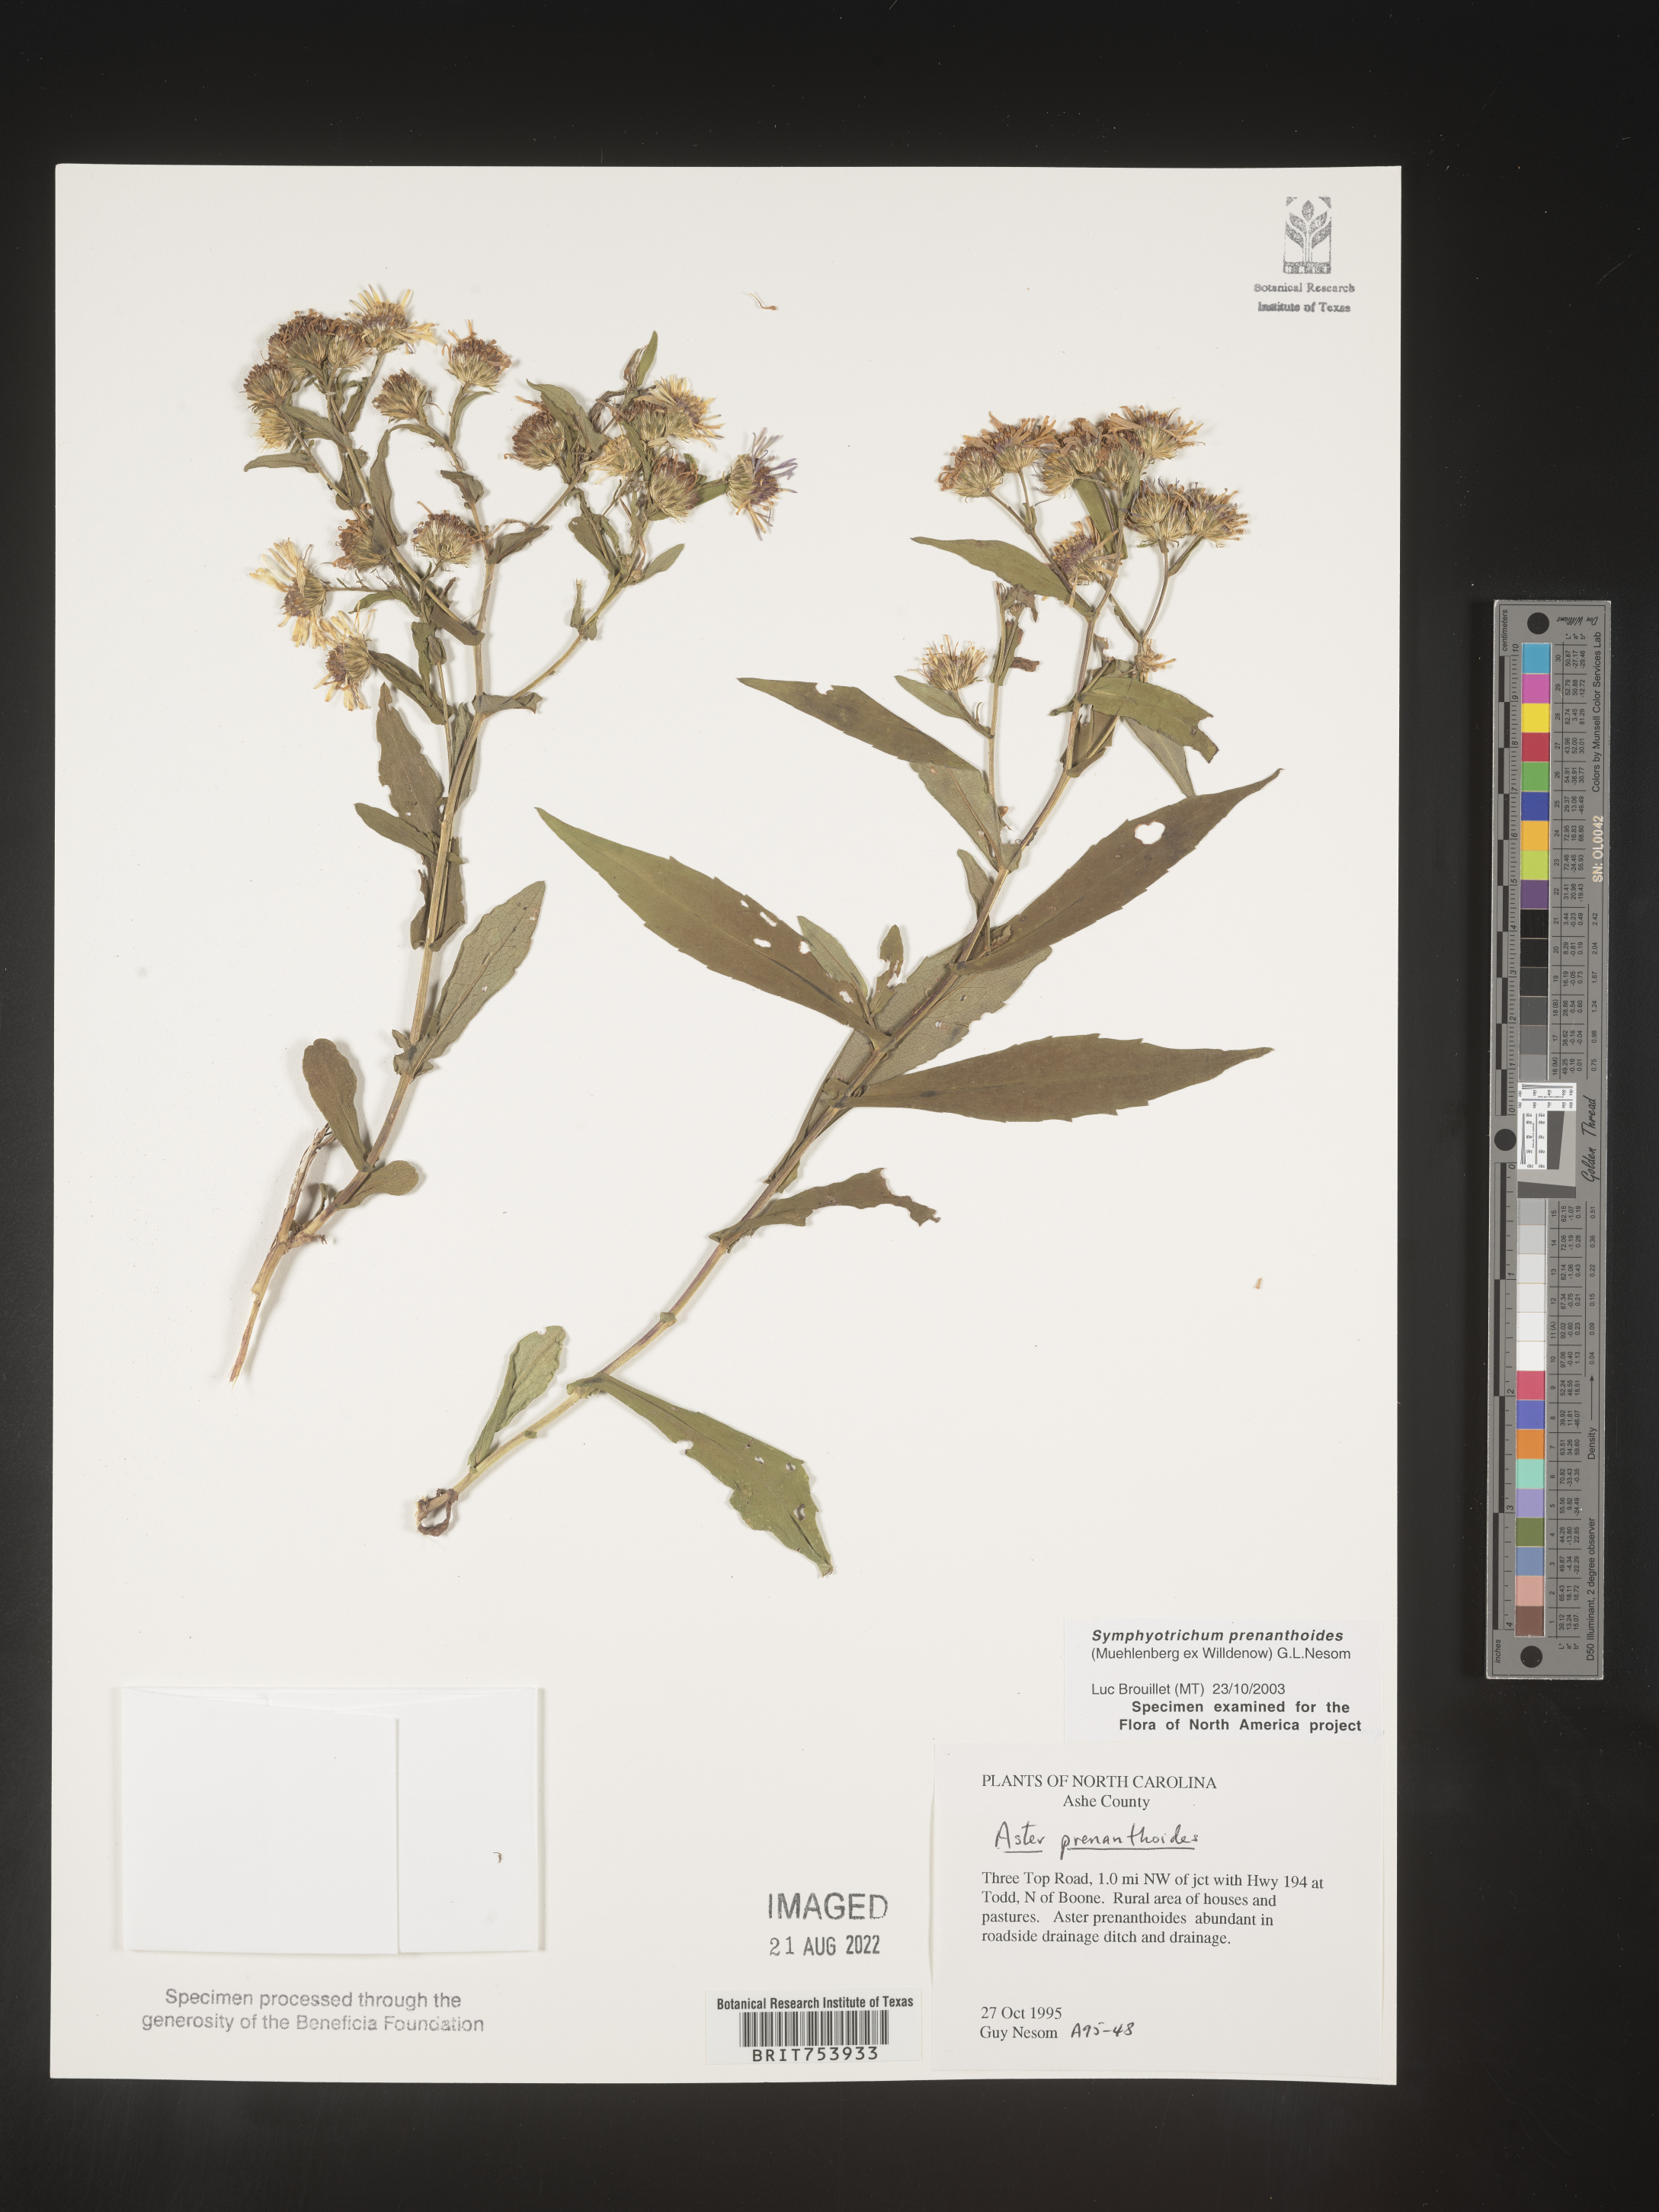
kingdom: Plantae
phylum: Tracheophyta
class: Magnoliopsida
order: Asterales
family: Asteraceae
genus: Symphyotrichum
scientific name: Symphyotrichum prenanthoides
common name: Crooked-stem aster
